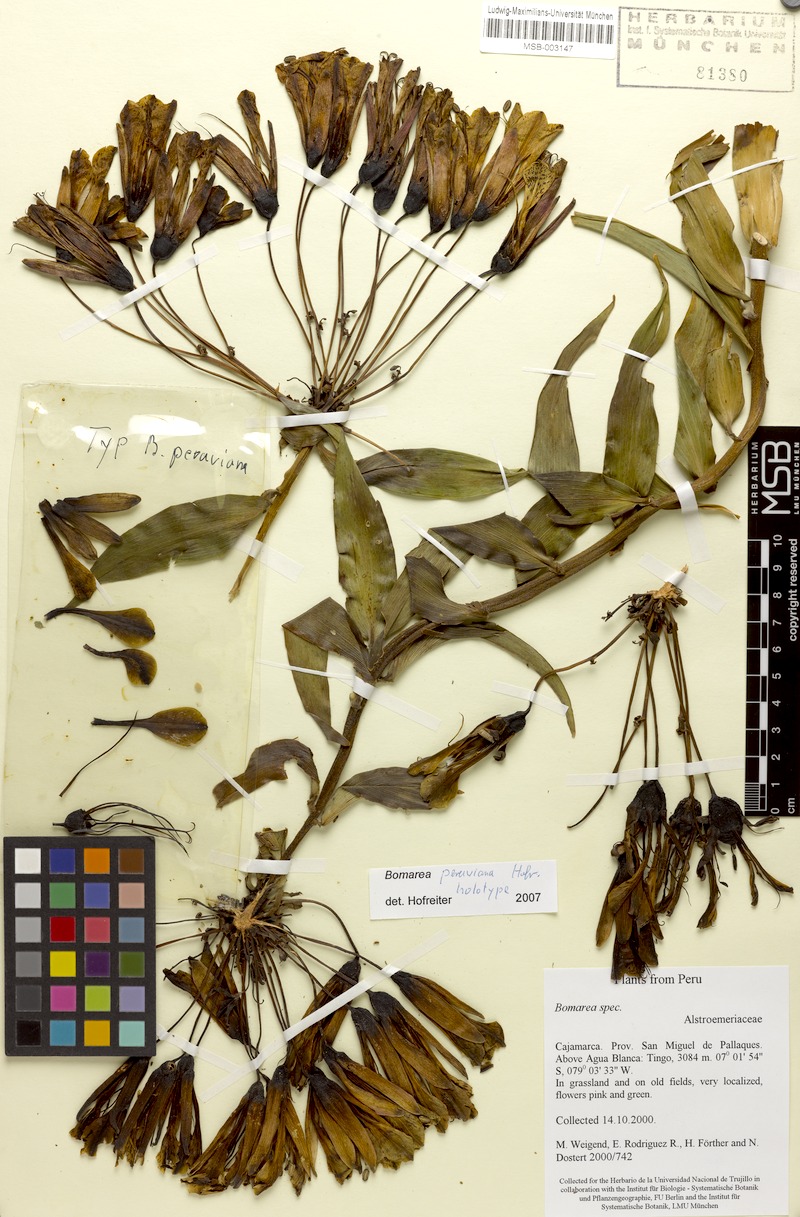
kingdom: Plantae
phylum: Tracheophyta
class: Liliopsida
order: Liliales
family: Alstroemeriaceae
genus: Bomarea
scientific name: Bomarea peruviana
